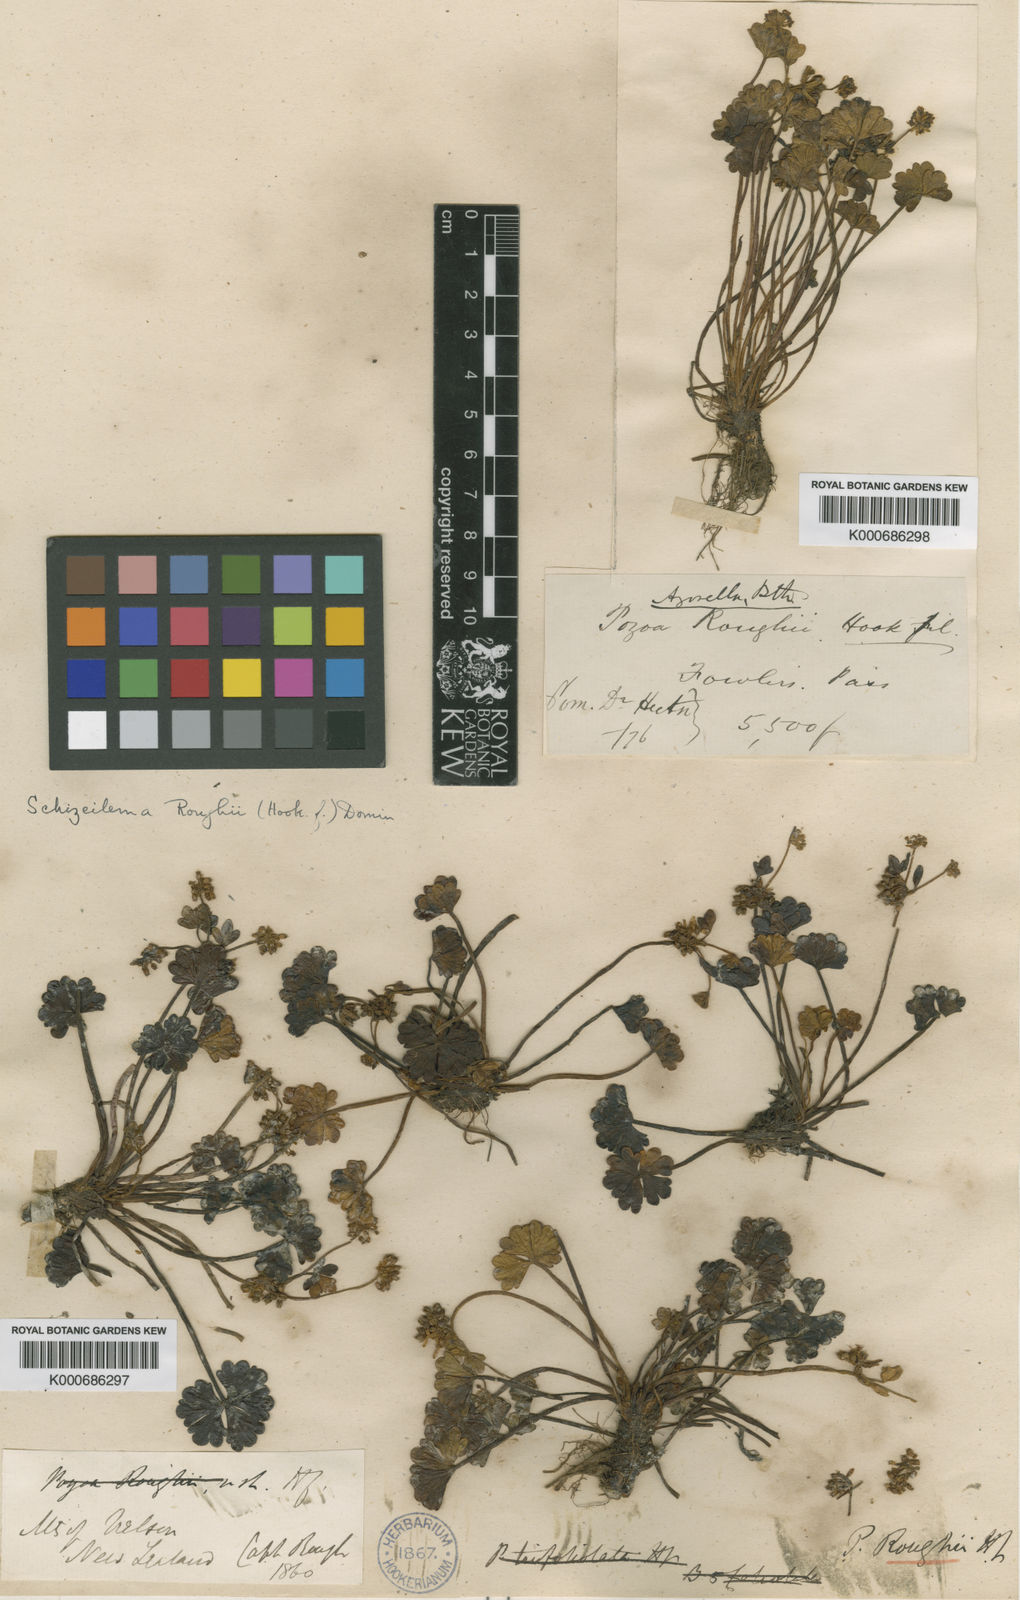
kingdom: Plantae
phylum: Tracheophyta
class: Magnoliopsida
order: Apiales
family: Apiaceae
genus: Azorella
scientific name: Azorella roughii
